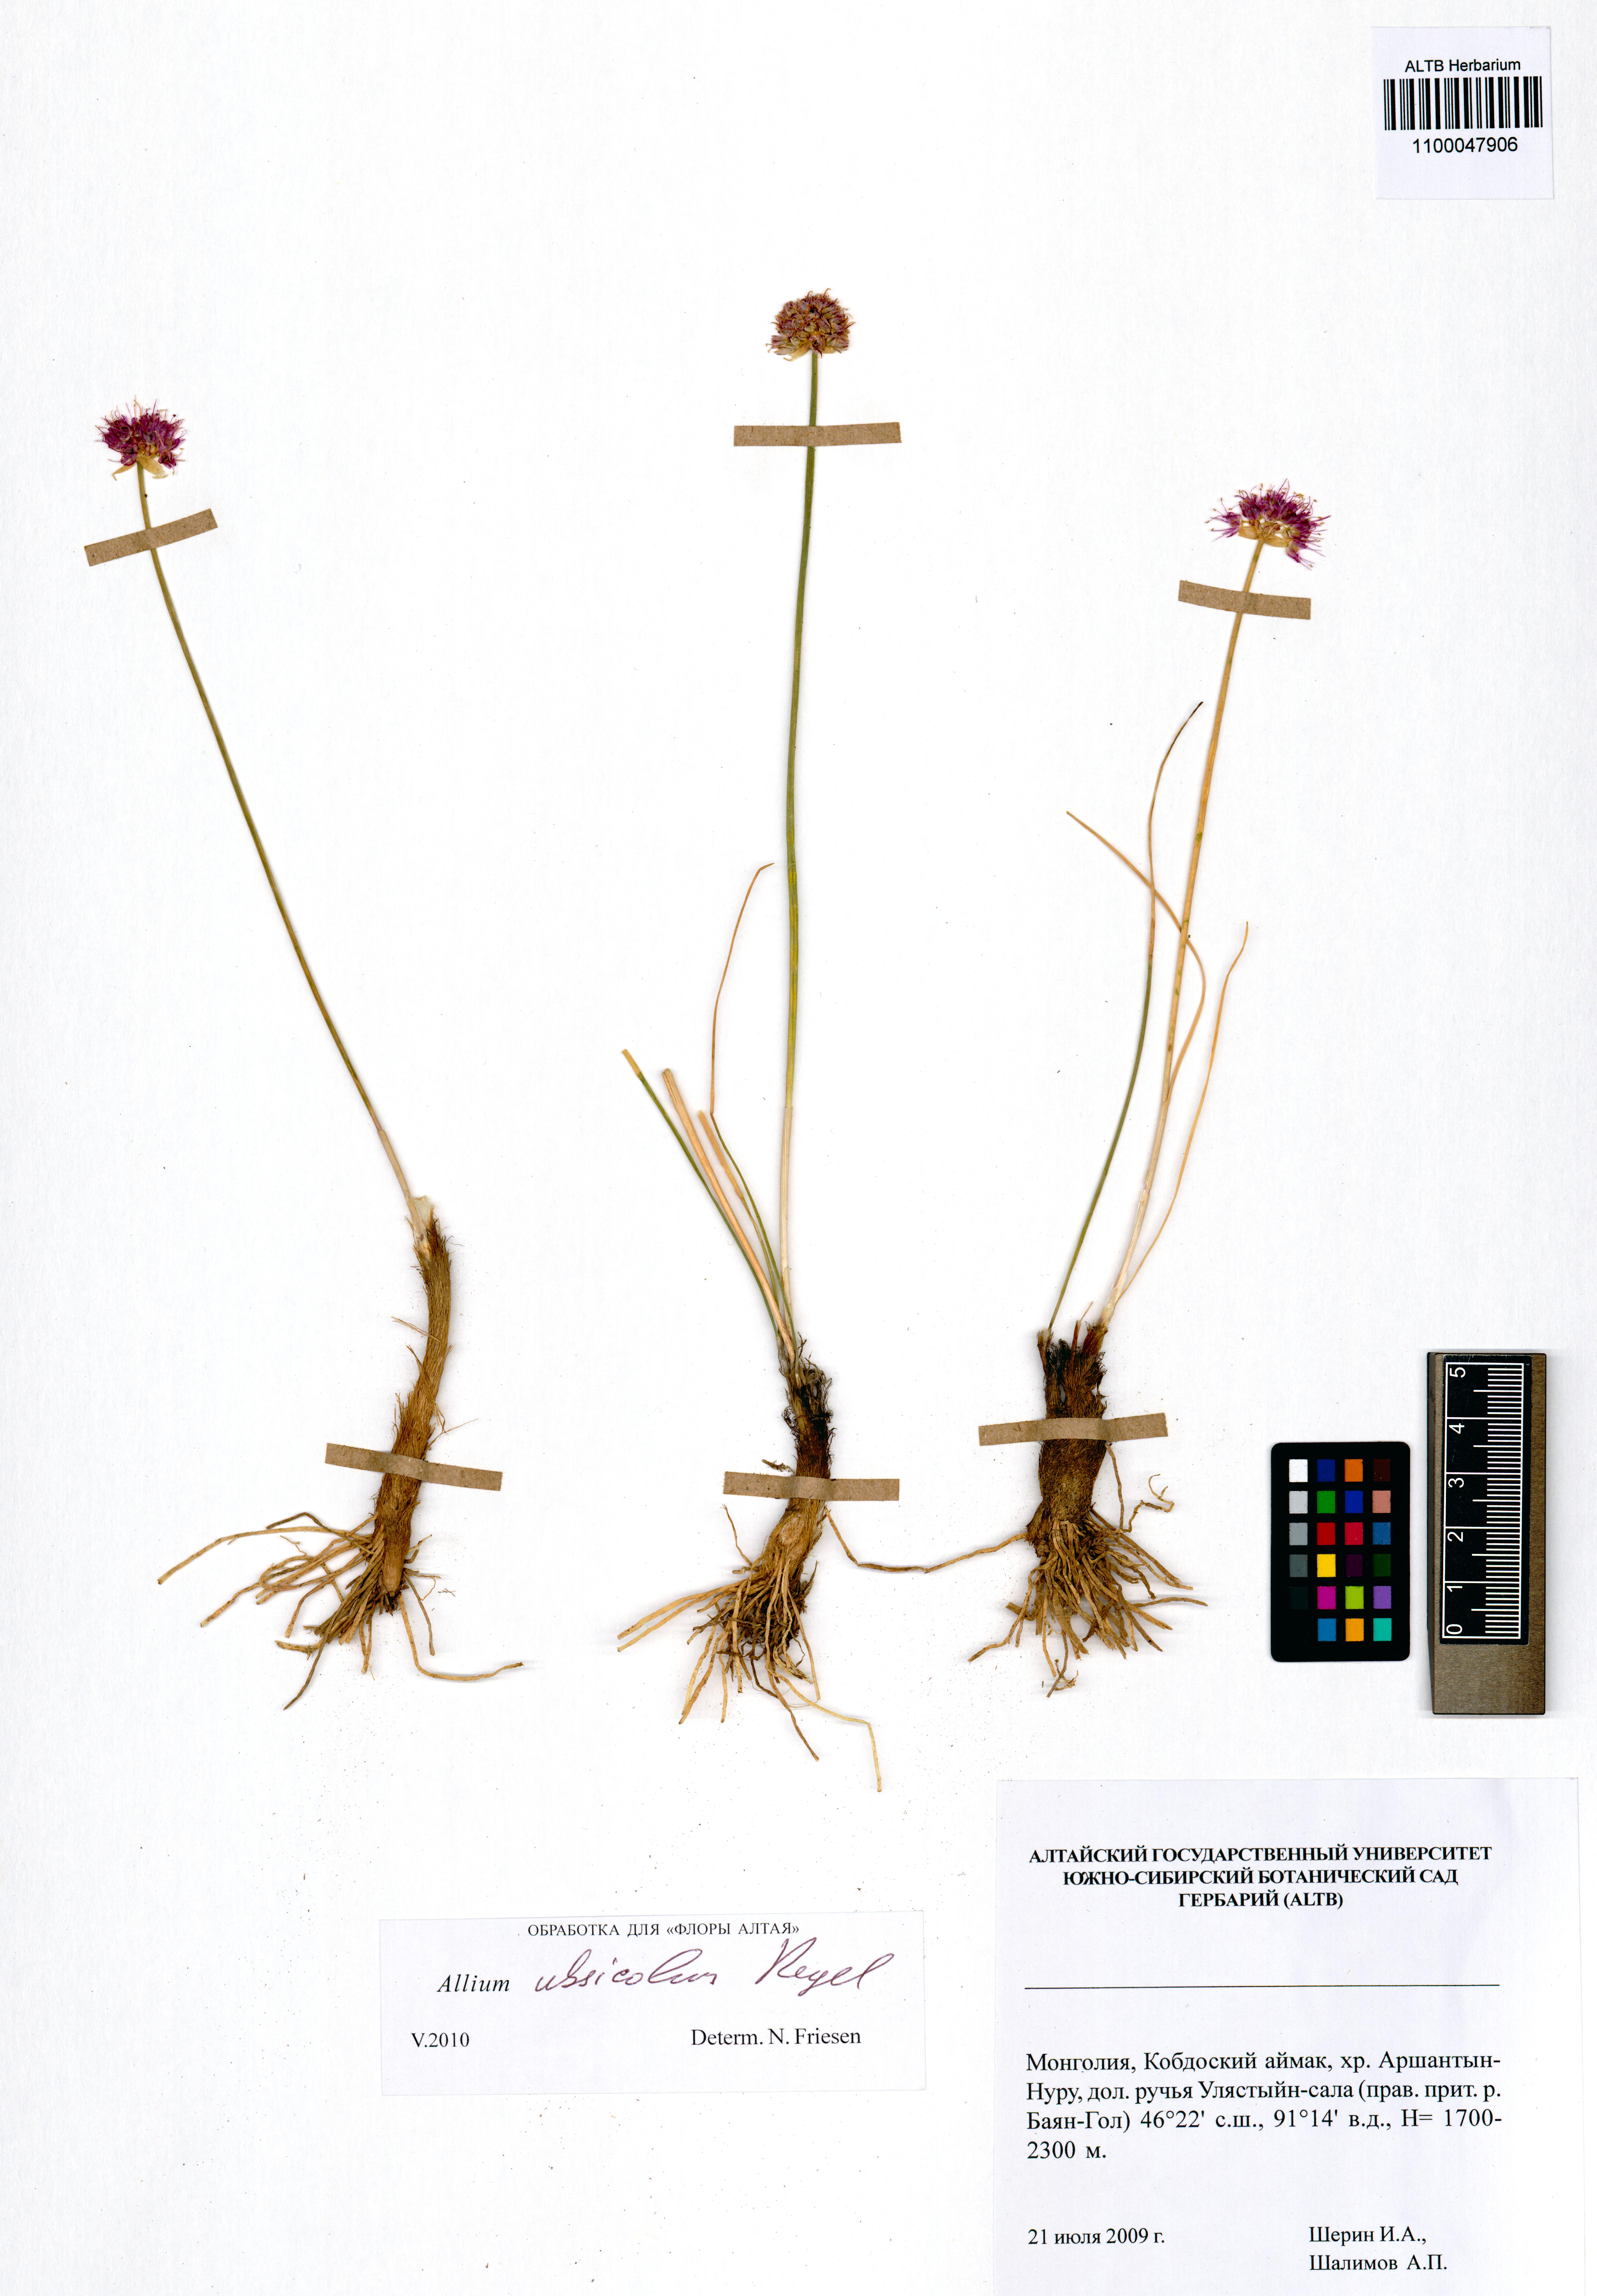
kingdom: Plantae
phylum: Tracheophyta
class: Liliopsida
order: Asparagales
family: Amaryllidaceae
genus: Allium
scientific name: Allium ubsicola
